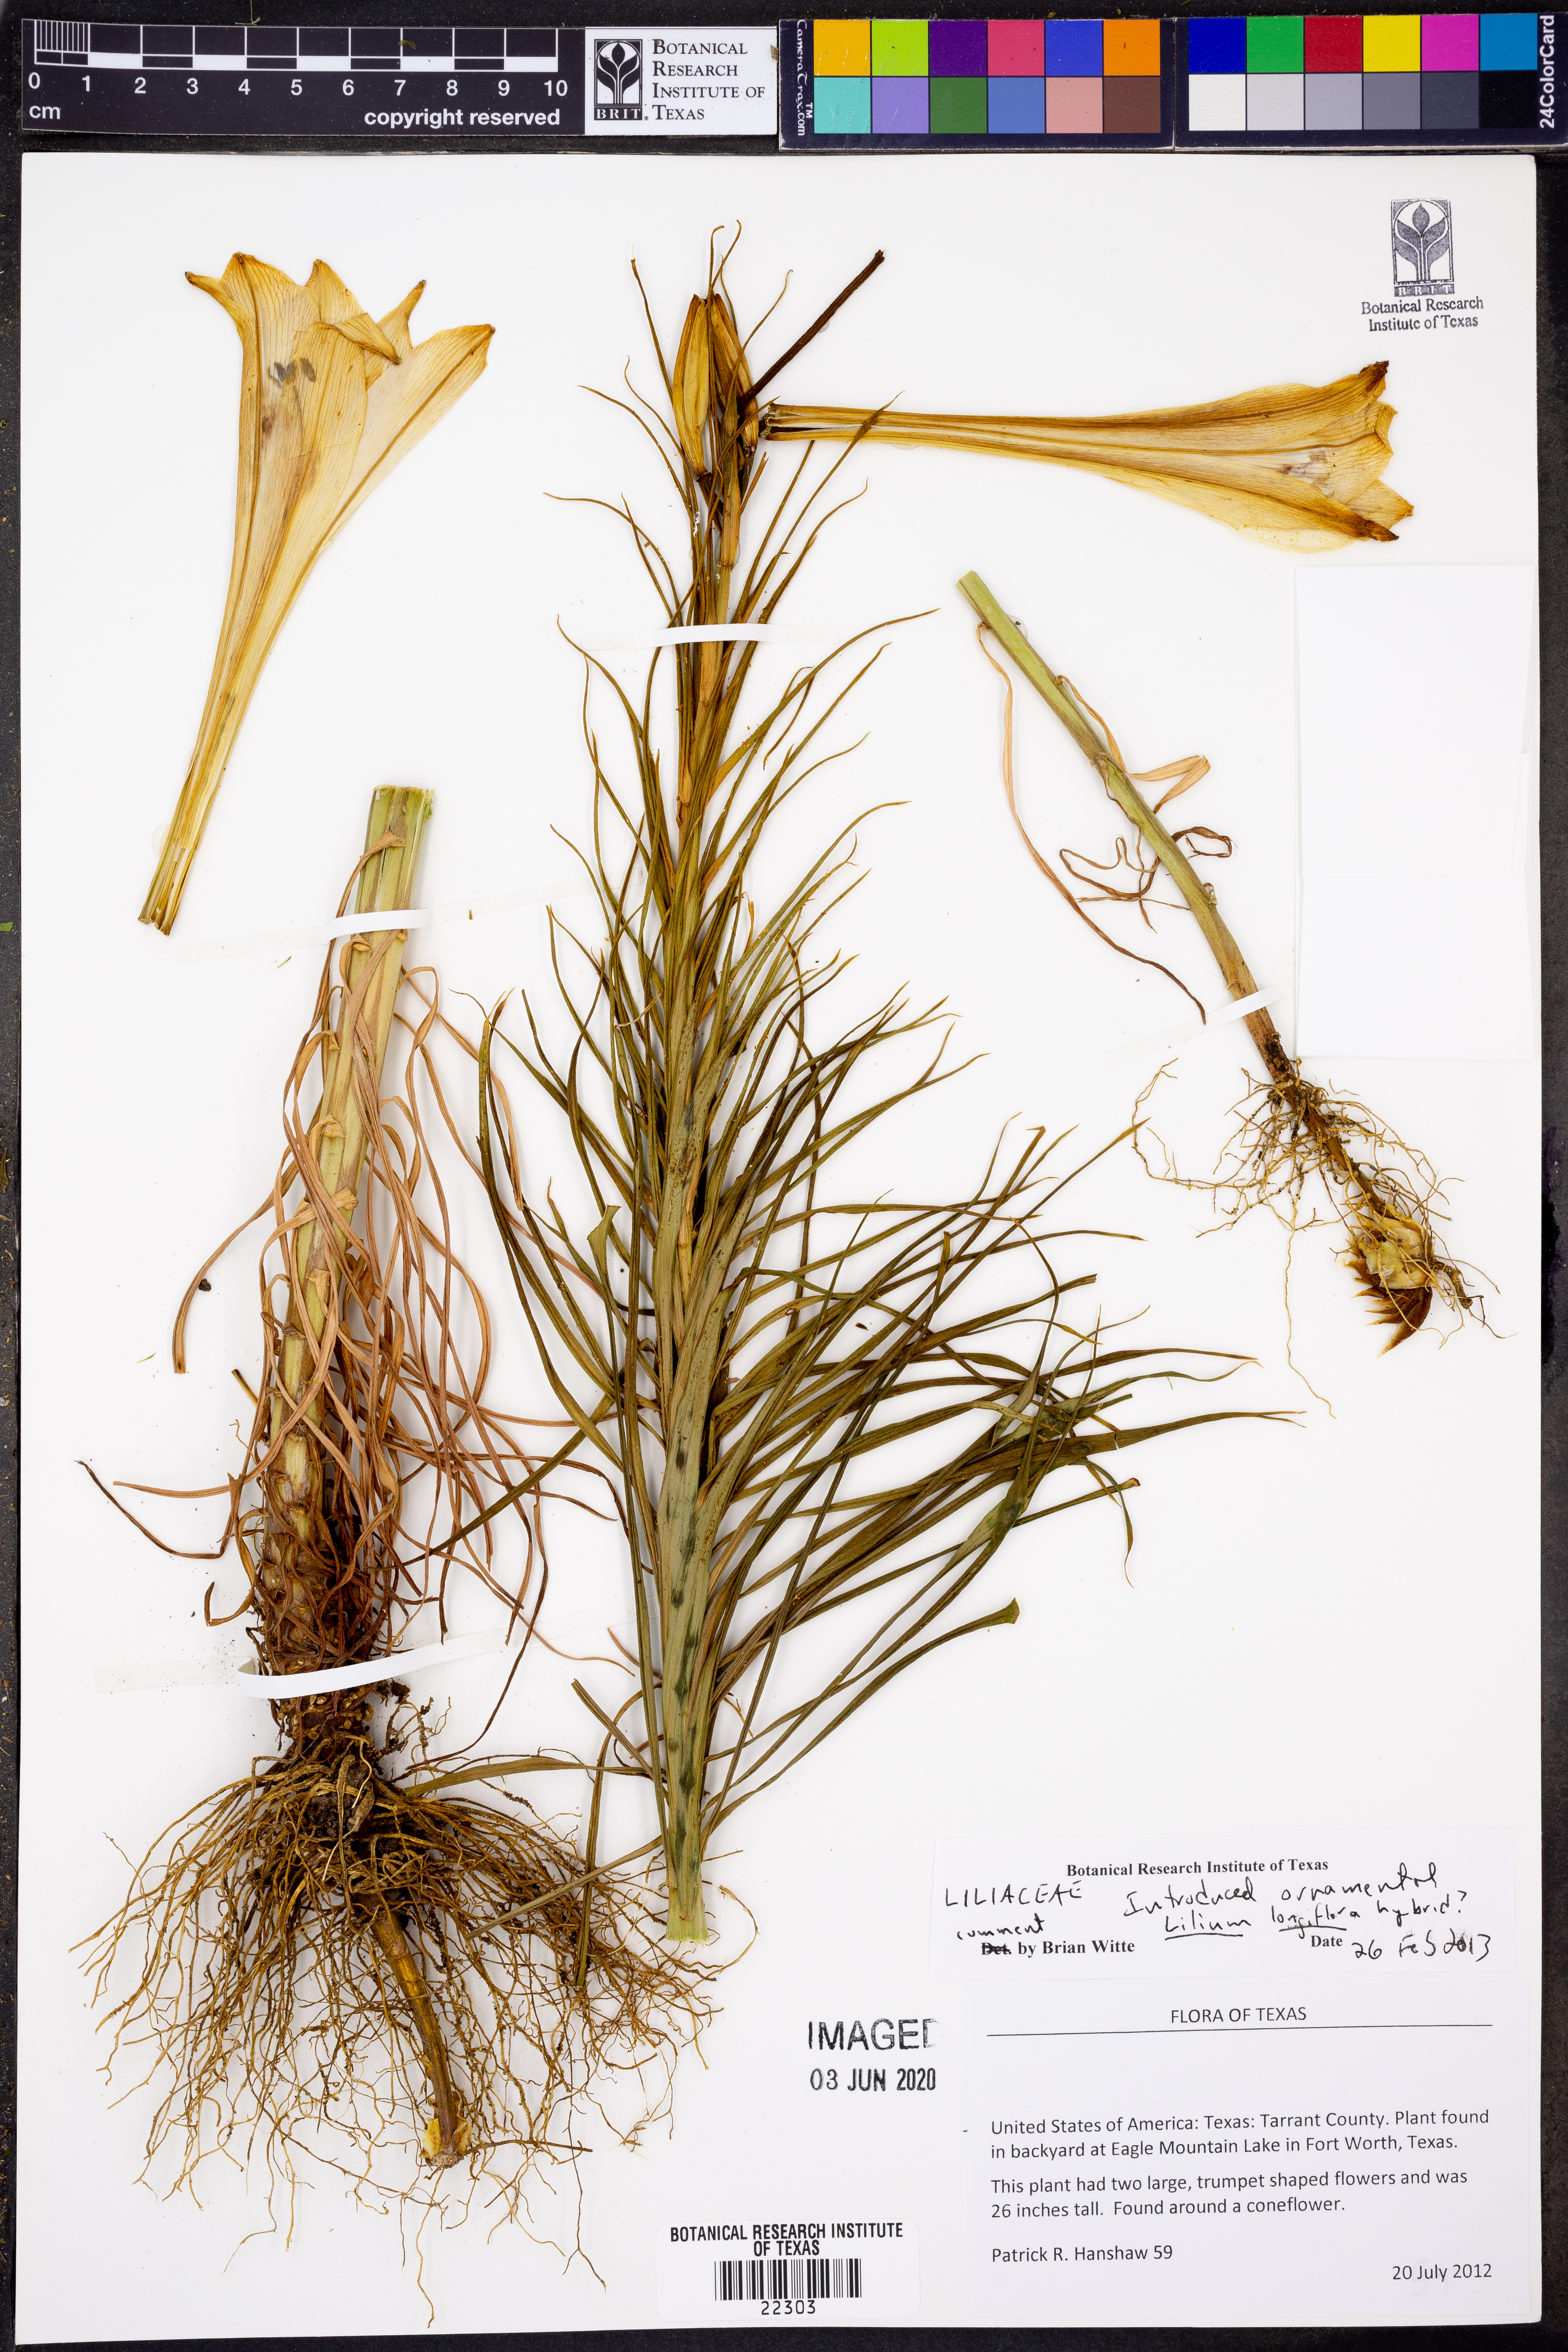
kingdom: Plantae
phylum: Tracheophyta
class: Liliopsida
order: Liliales
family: Liliaceae
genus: Lilium
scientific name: Lilium wallichianum
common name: Wallich's lily
